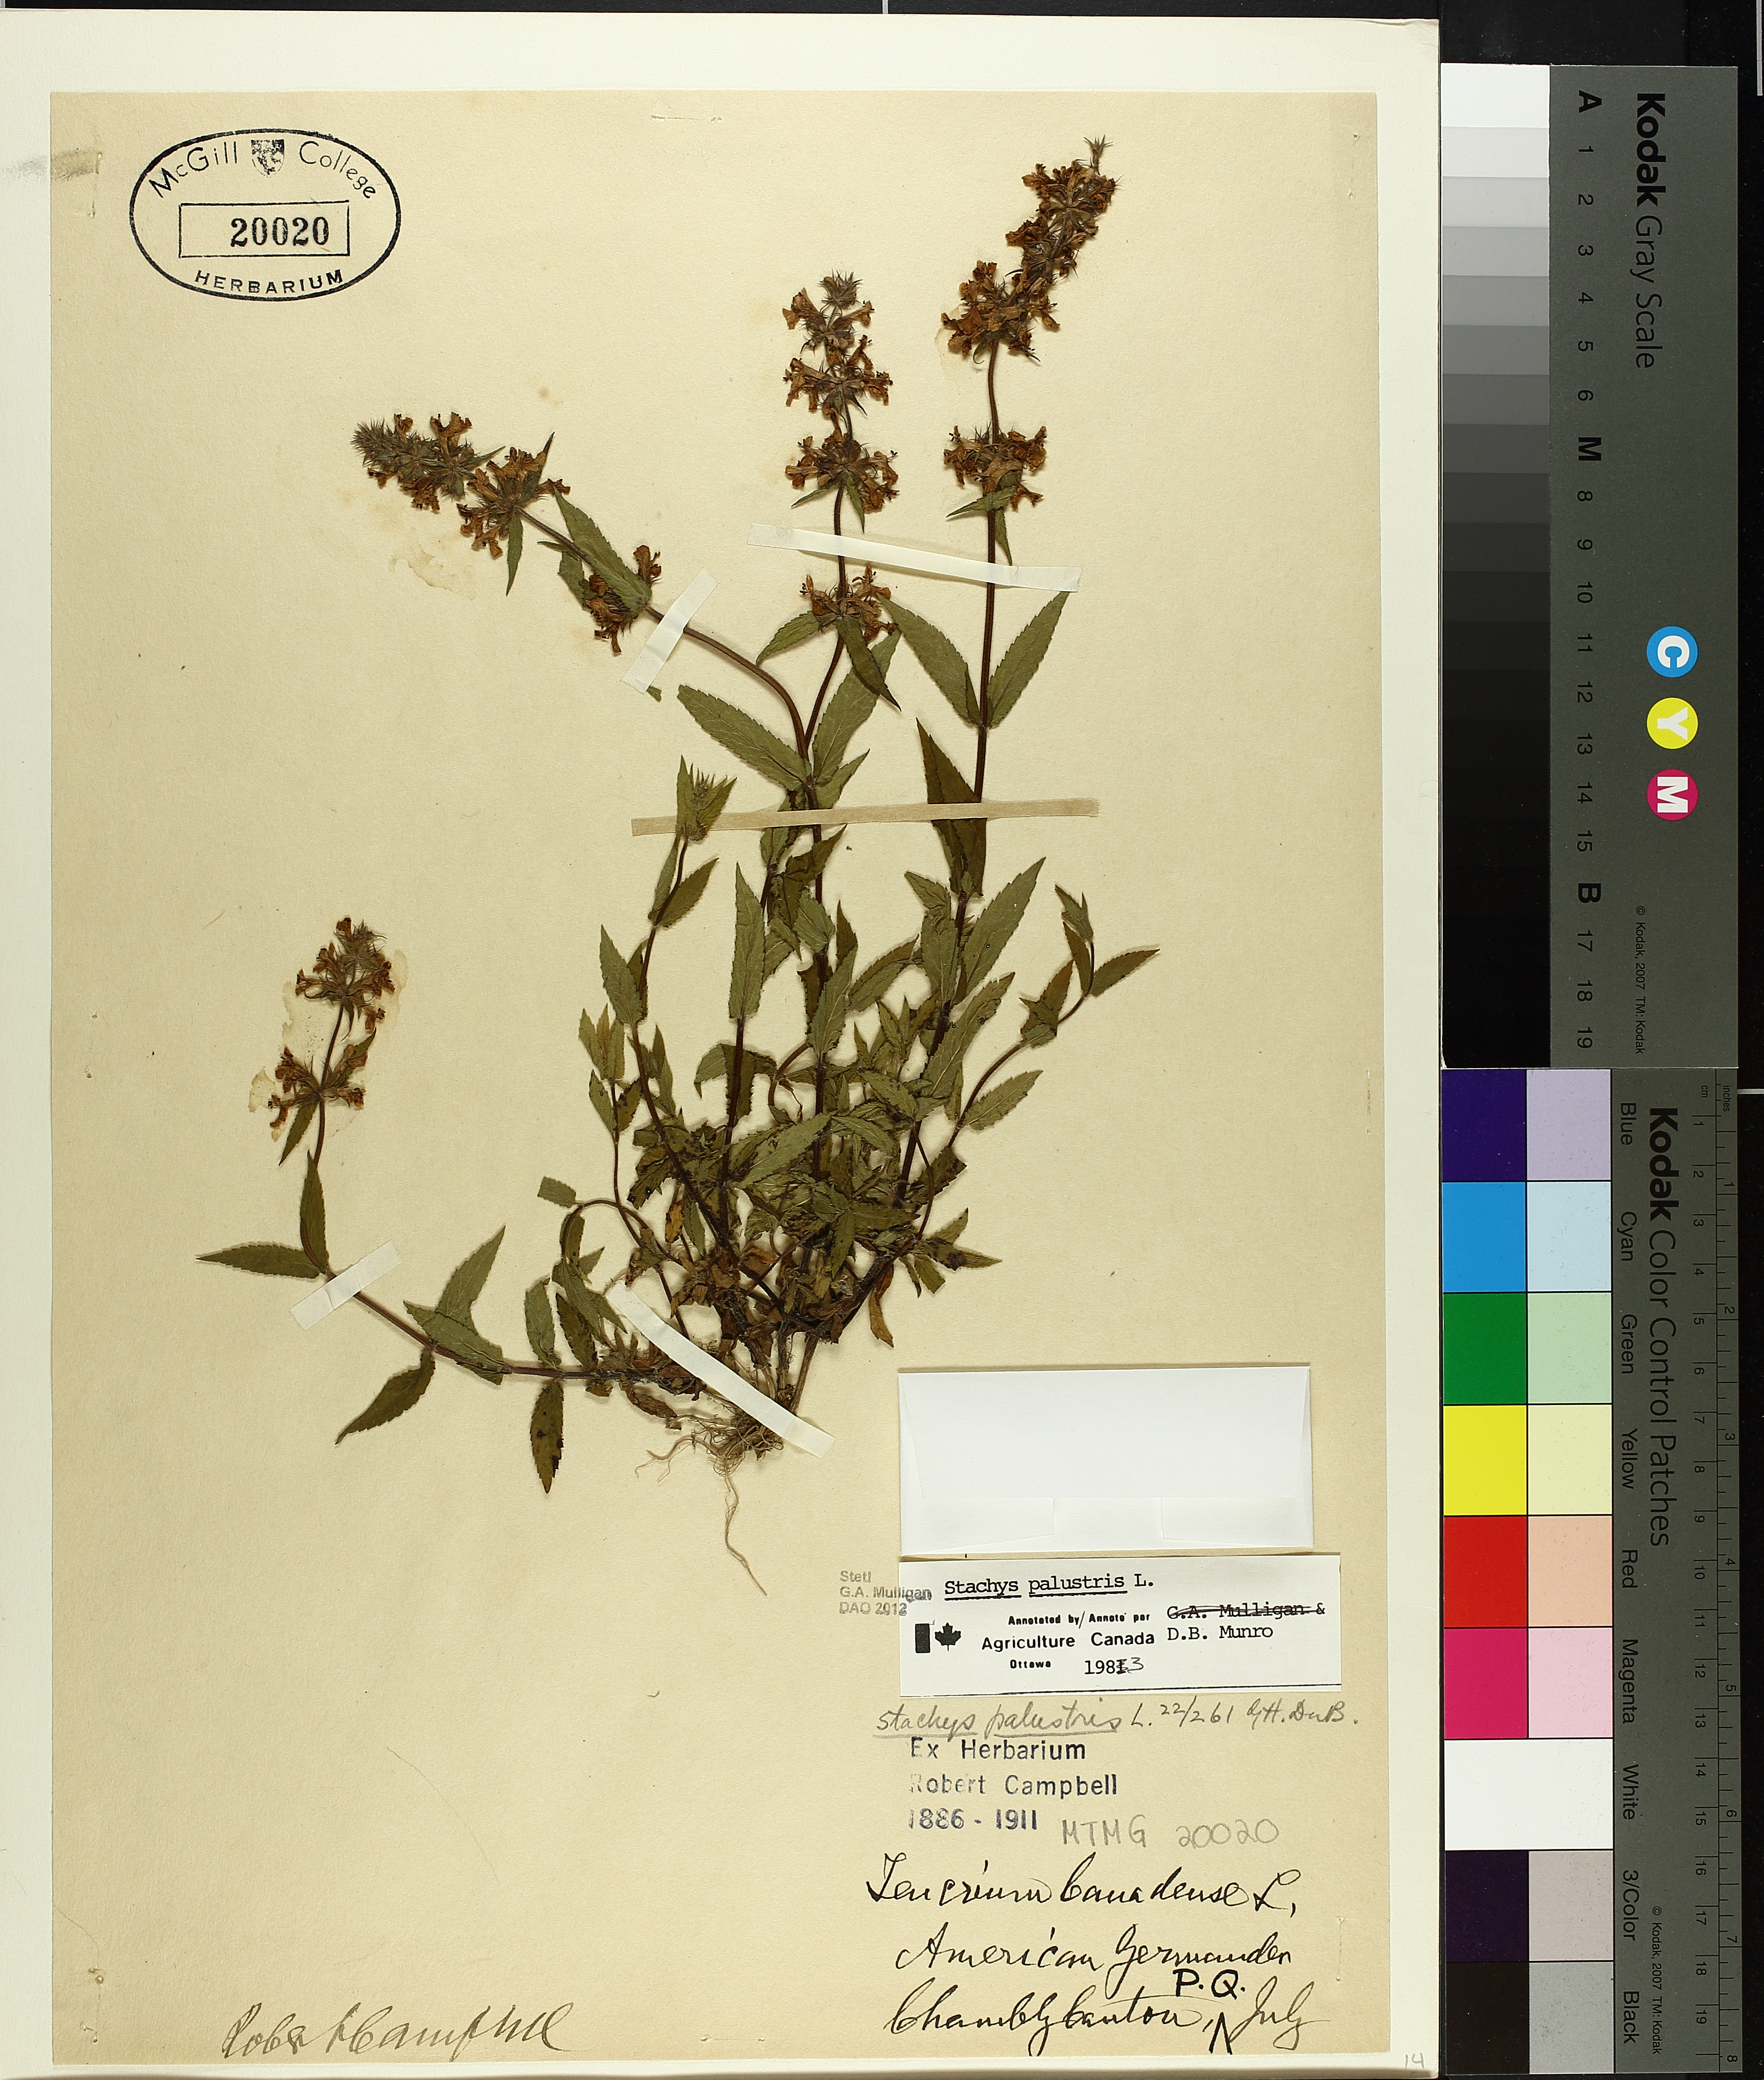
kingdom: Plantae
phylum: Tracheophyta
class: Magnoliopsida
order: Lamiales
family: Lamiaceae
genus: Stachys
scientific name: Stachys palustris
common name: Marsh woundwort
